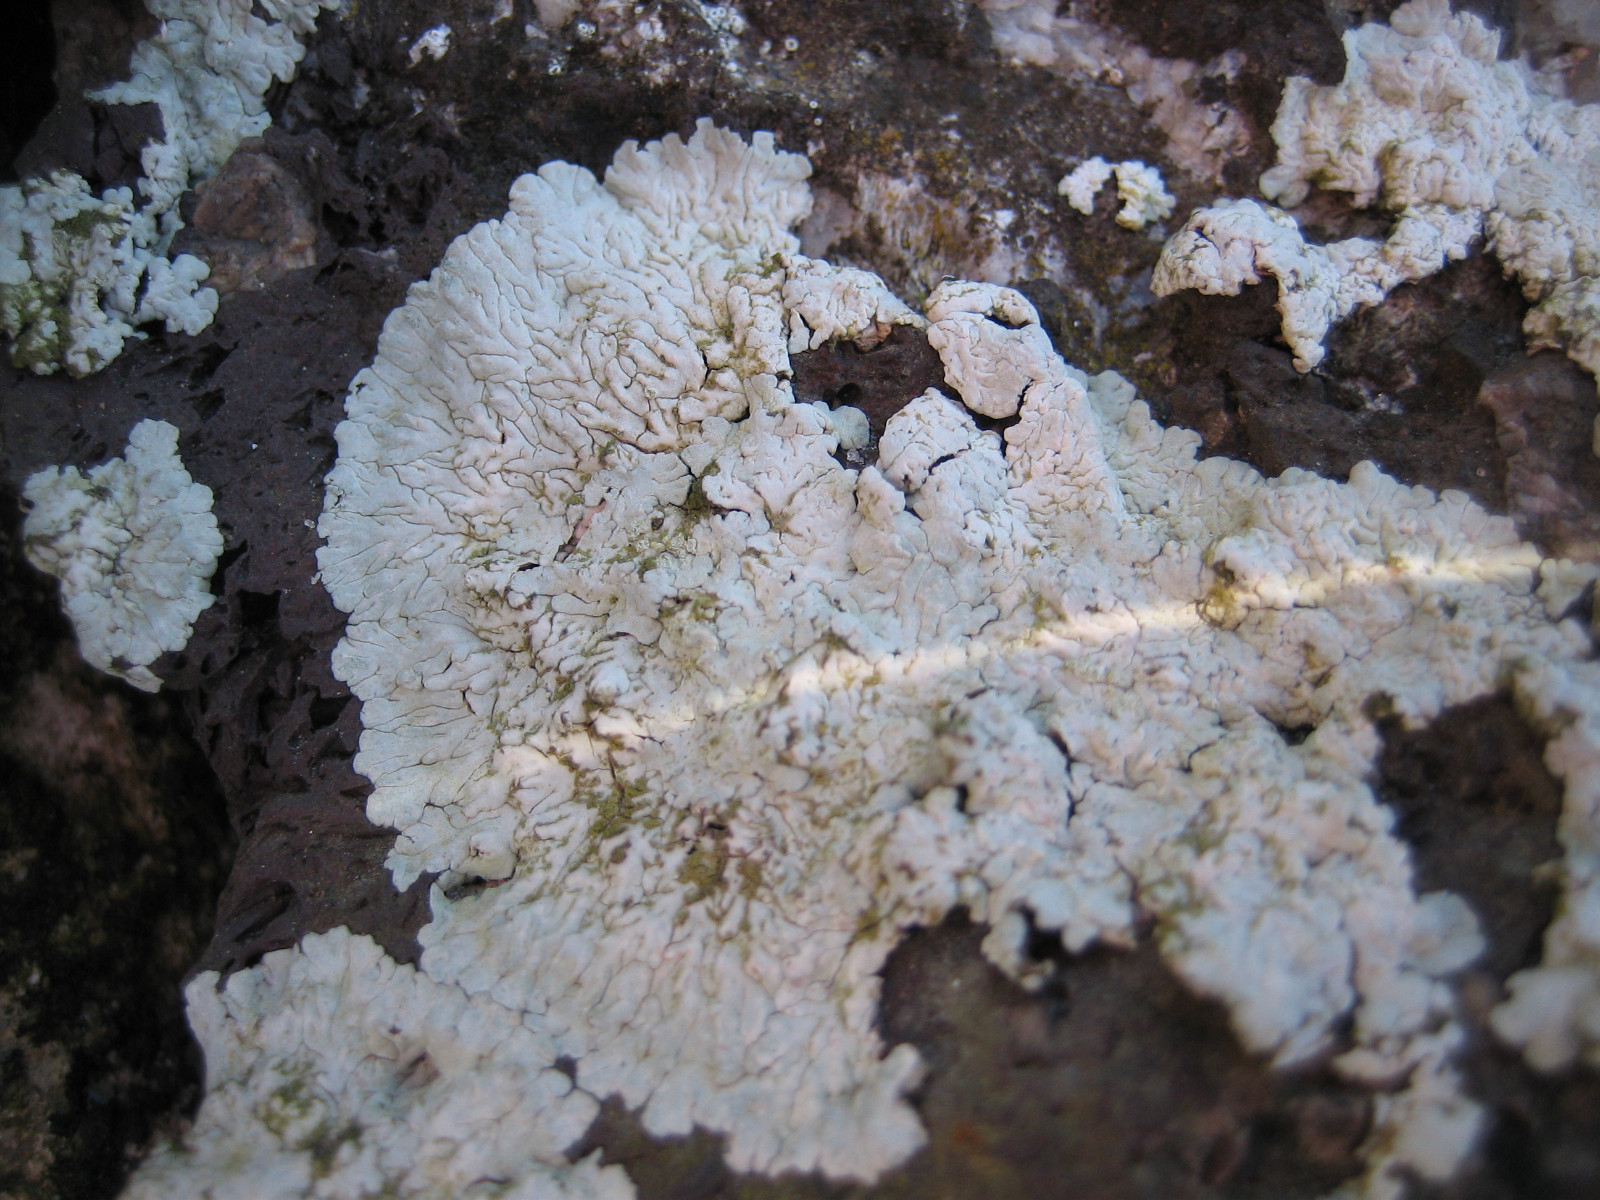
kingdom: Fungi
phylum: Ascomycota
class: Lecanoromycetes
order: Caliciales
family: Caliciaceae
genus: Diploicia
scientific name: Diploicia canescens
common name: grå støvrosetlav
